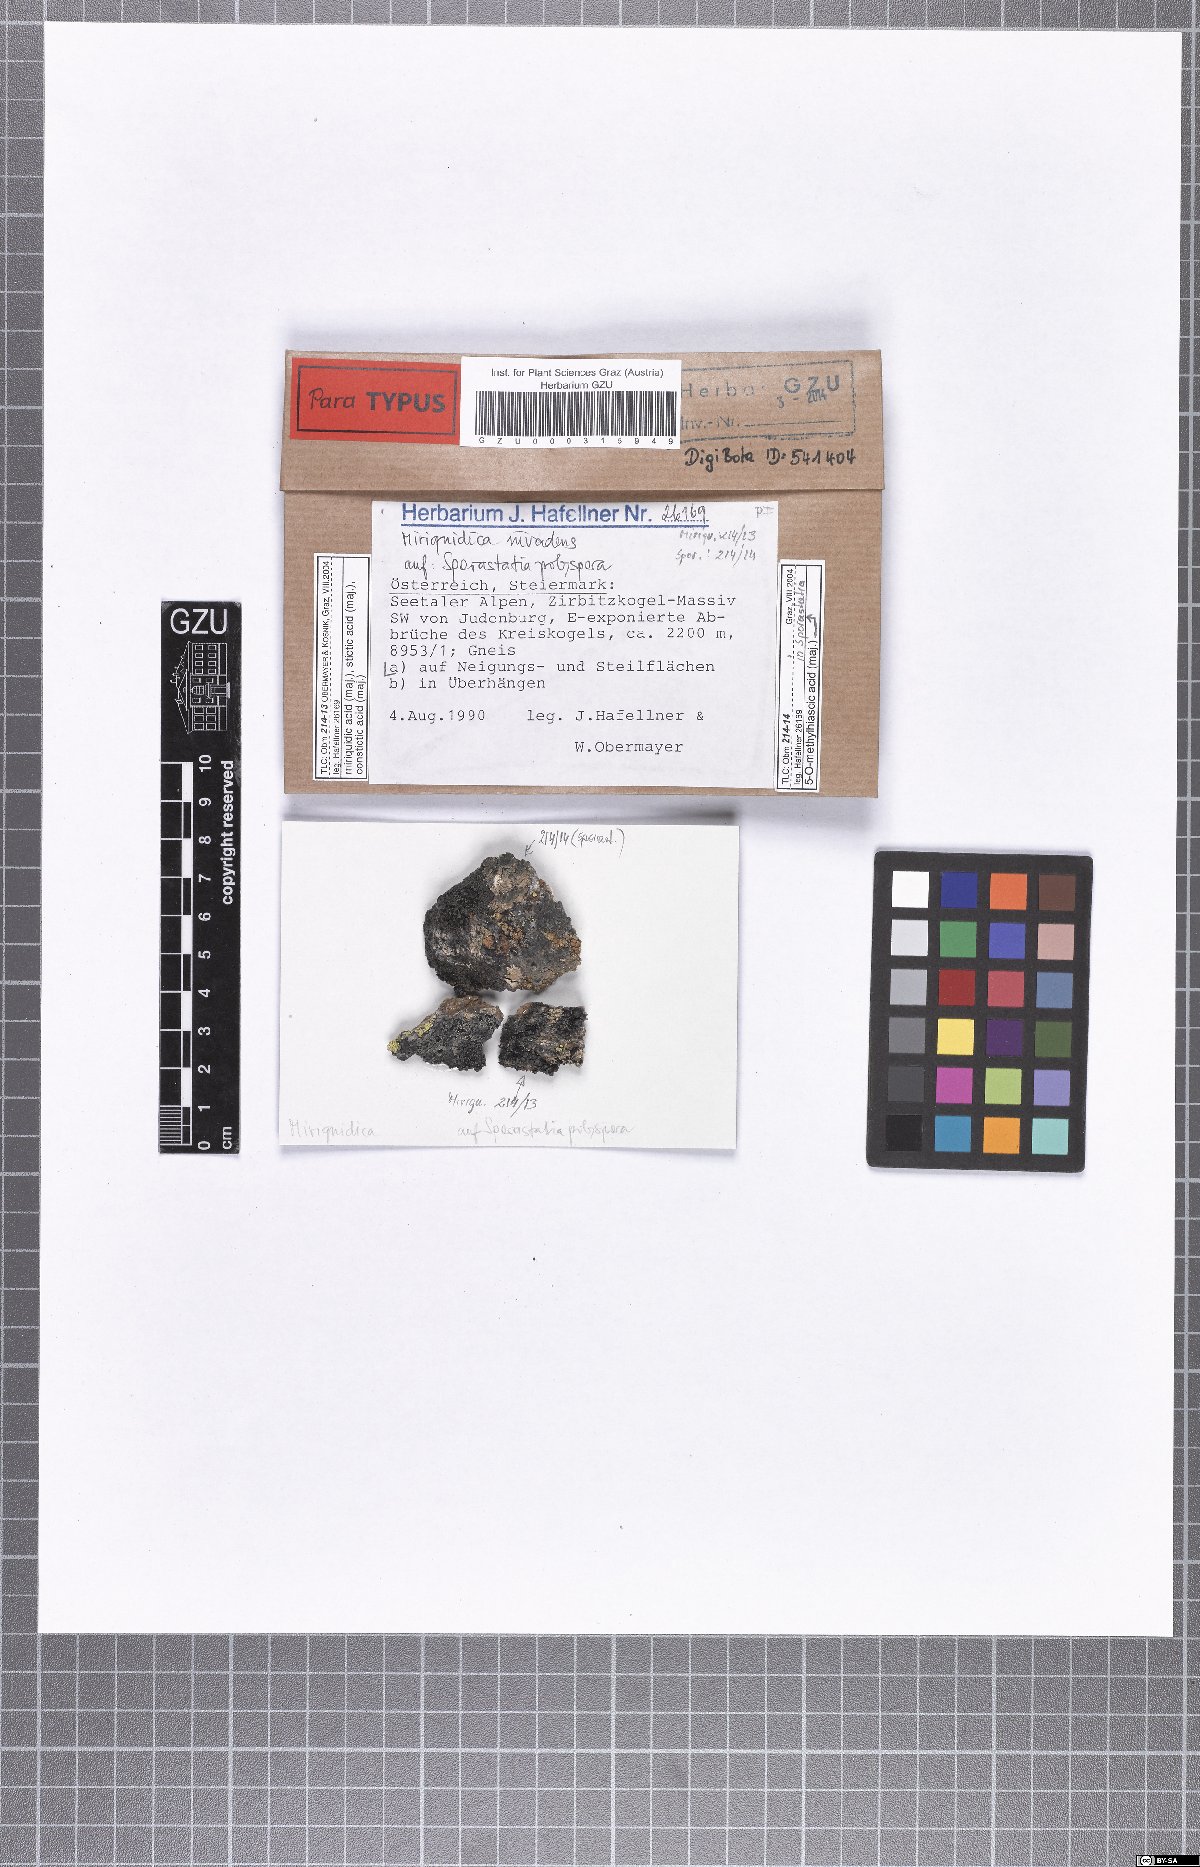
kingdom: Fungi
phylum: Ascomycota
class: Lecanoromycetes
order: Lecanorales
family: Lecanoraceae
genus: Miriquidica
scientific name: Miriquidica invadens
